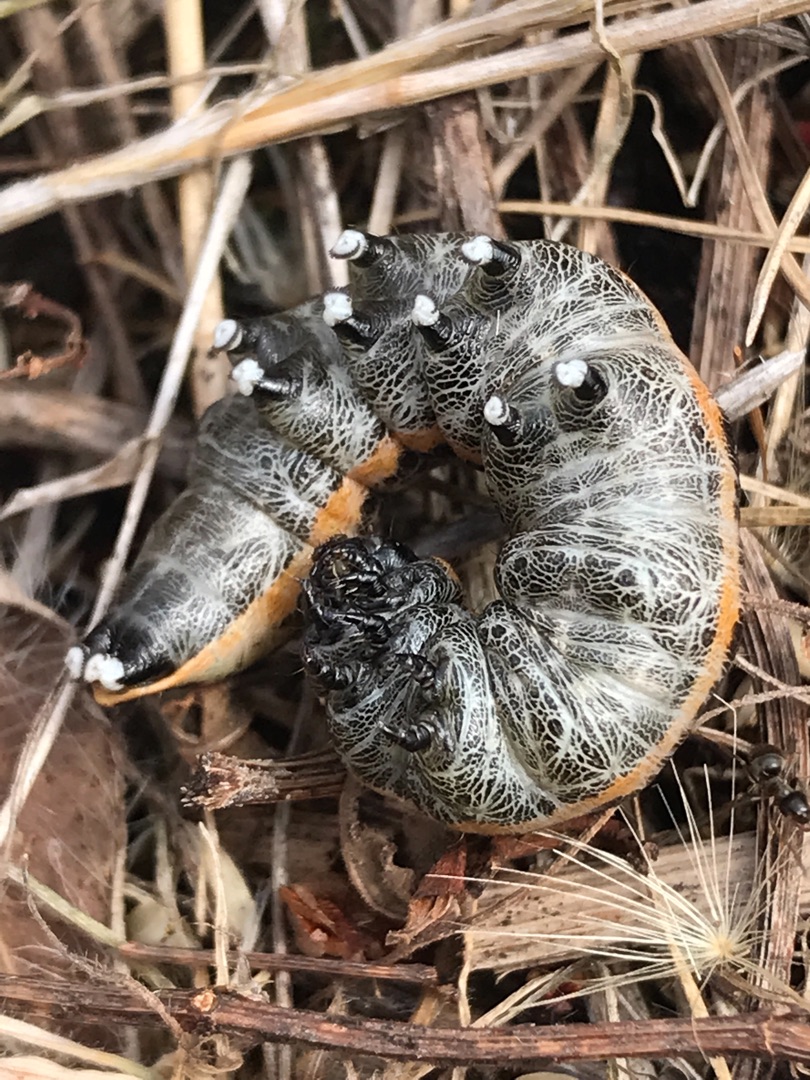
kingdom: Animalia
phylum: Arthropoda
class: Insecta
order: Lepidoptera
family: Noctuidae
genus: Cucullia
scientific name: Cucullia umbratica
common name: Grå hætteugle
